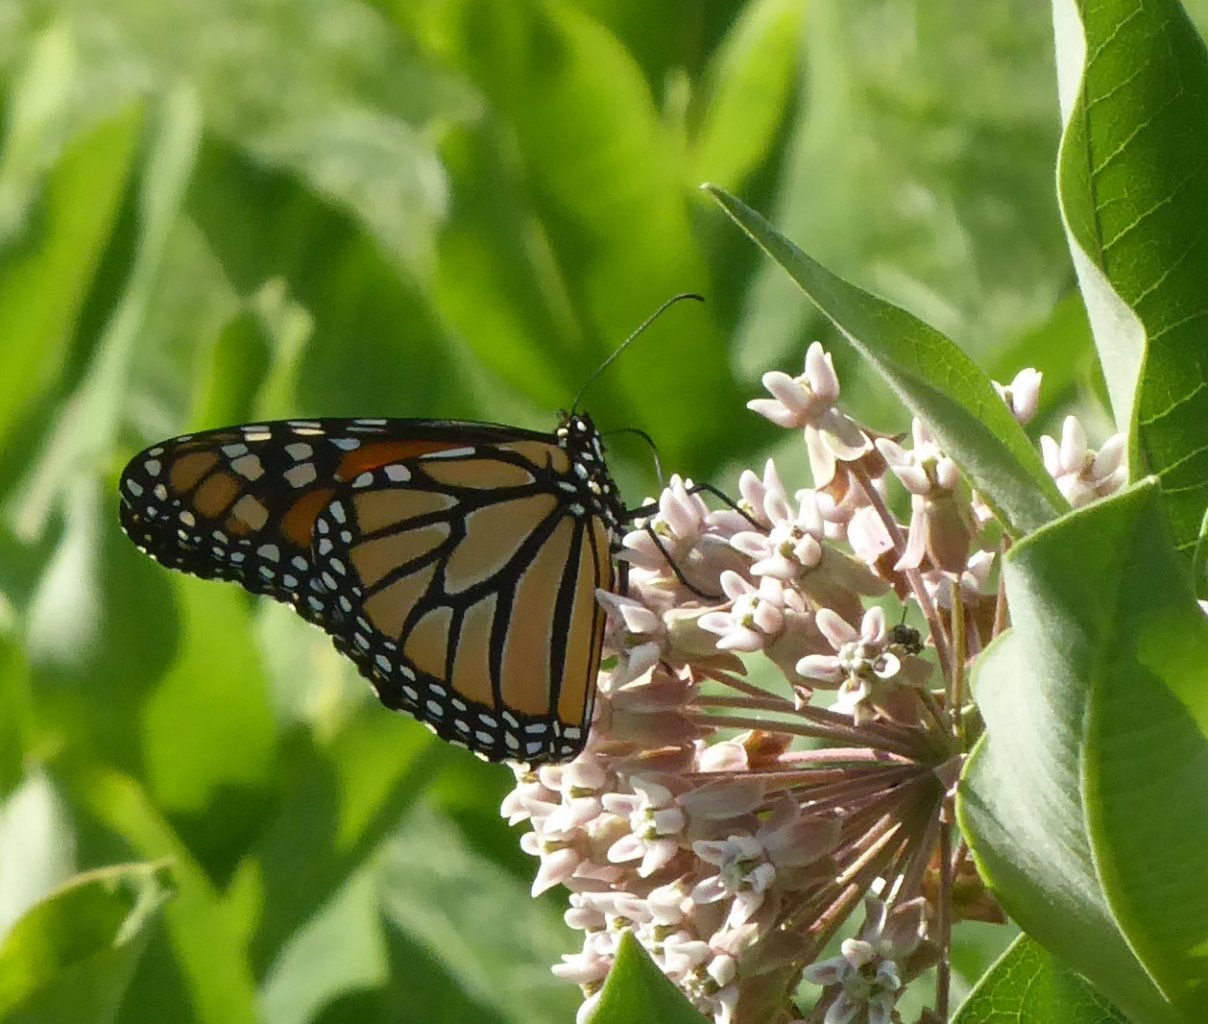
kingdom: Animalia
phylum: Arthropoda
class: Insecta
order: Lepidoptera
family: Nymphalidae
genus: Danaus
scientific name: Danaus plexippus
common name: Monarch
